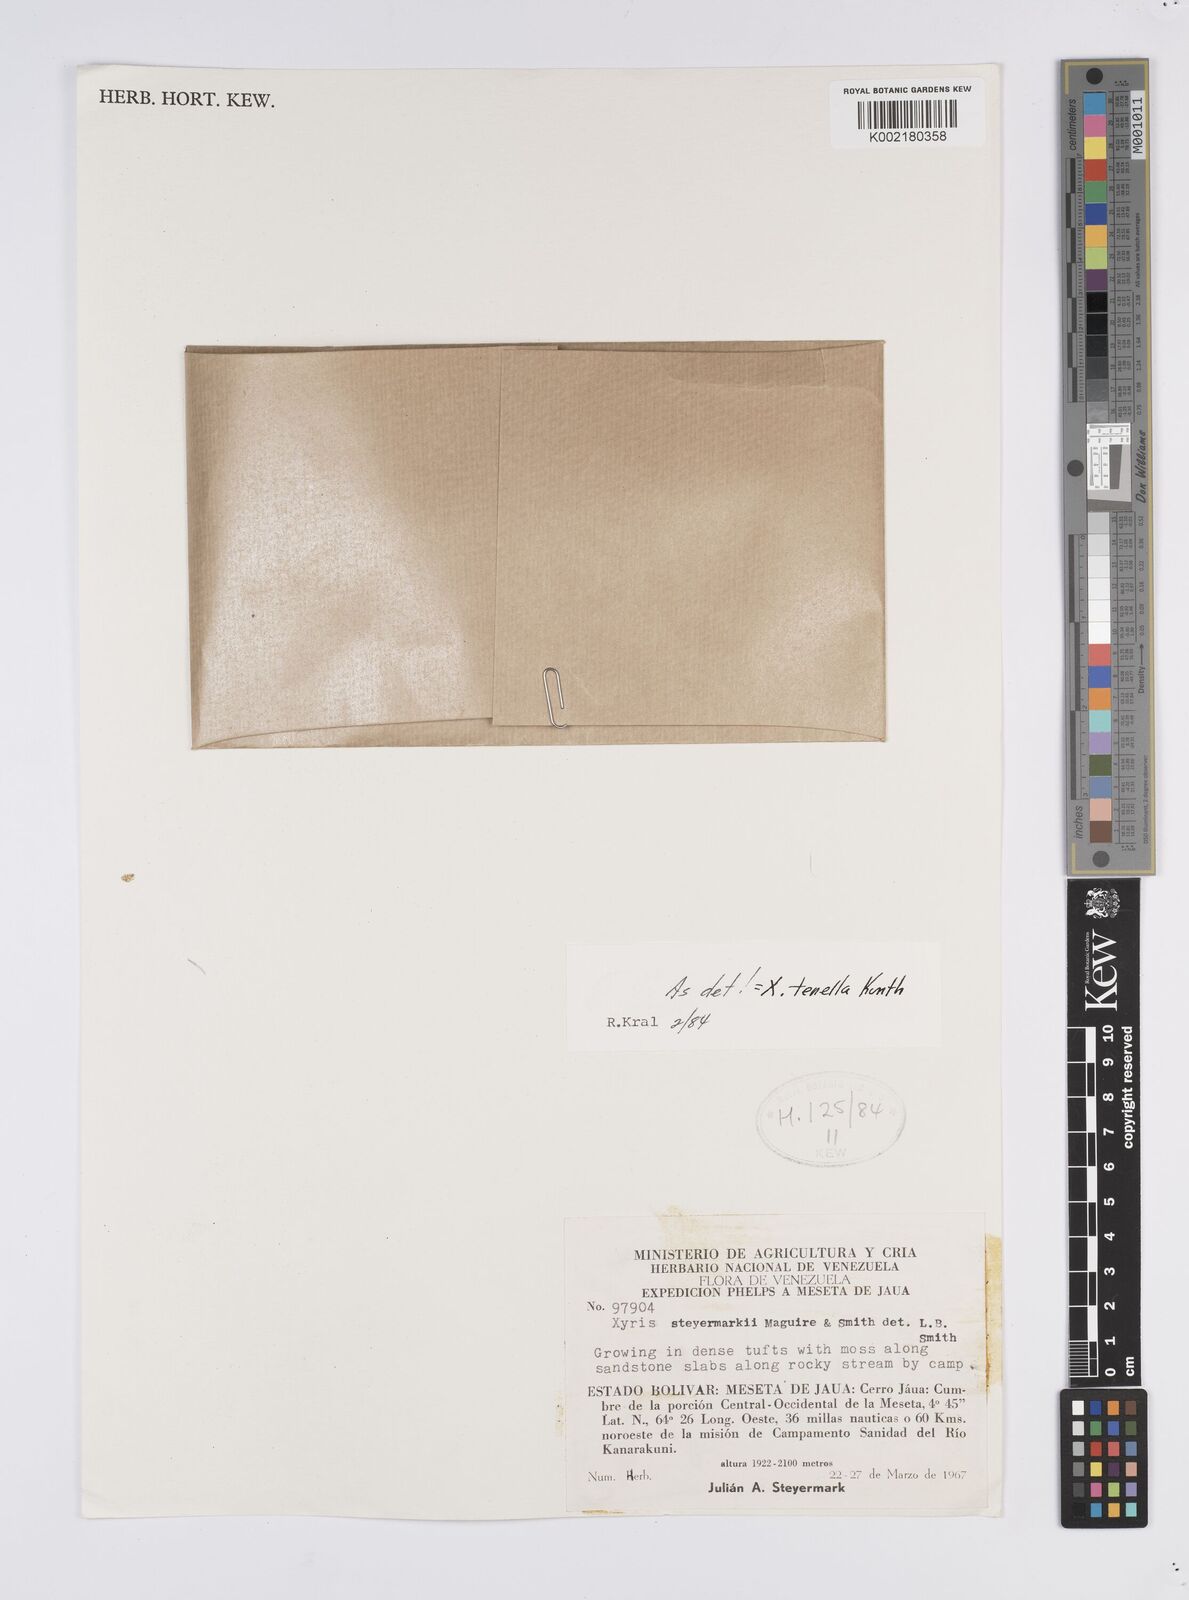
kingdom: Plantae
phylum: Tracheophyta
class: Liliopsida
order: Poales
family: Xyridaceae
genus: Xyris
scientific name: Xyris tenella
